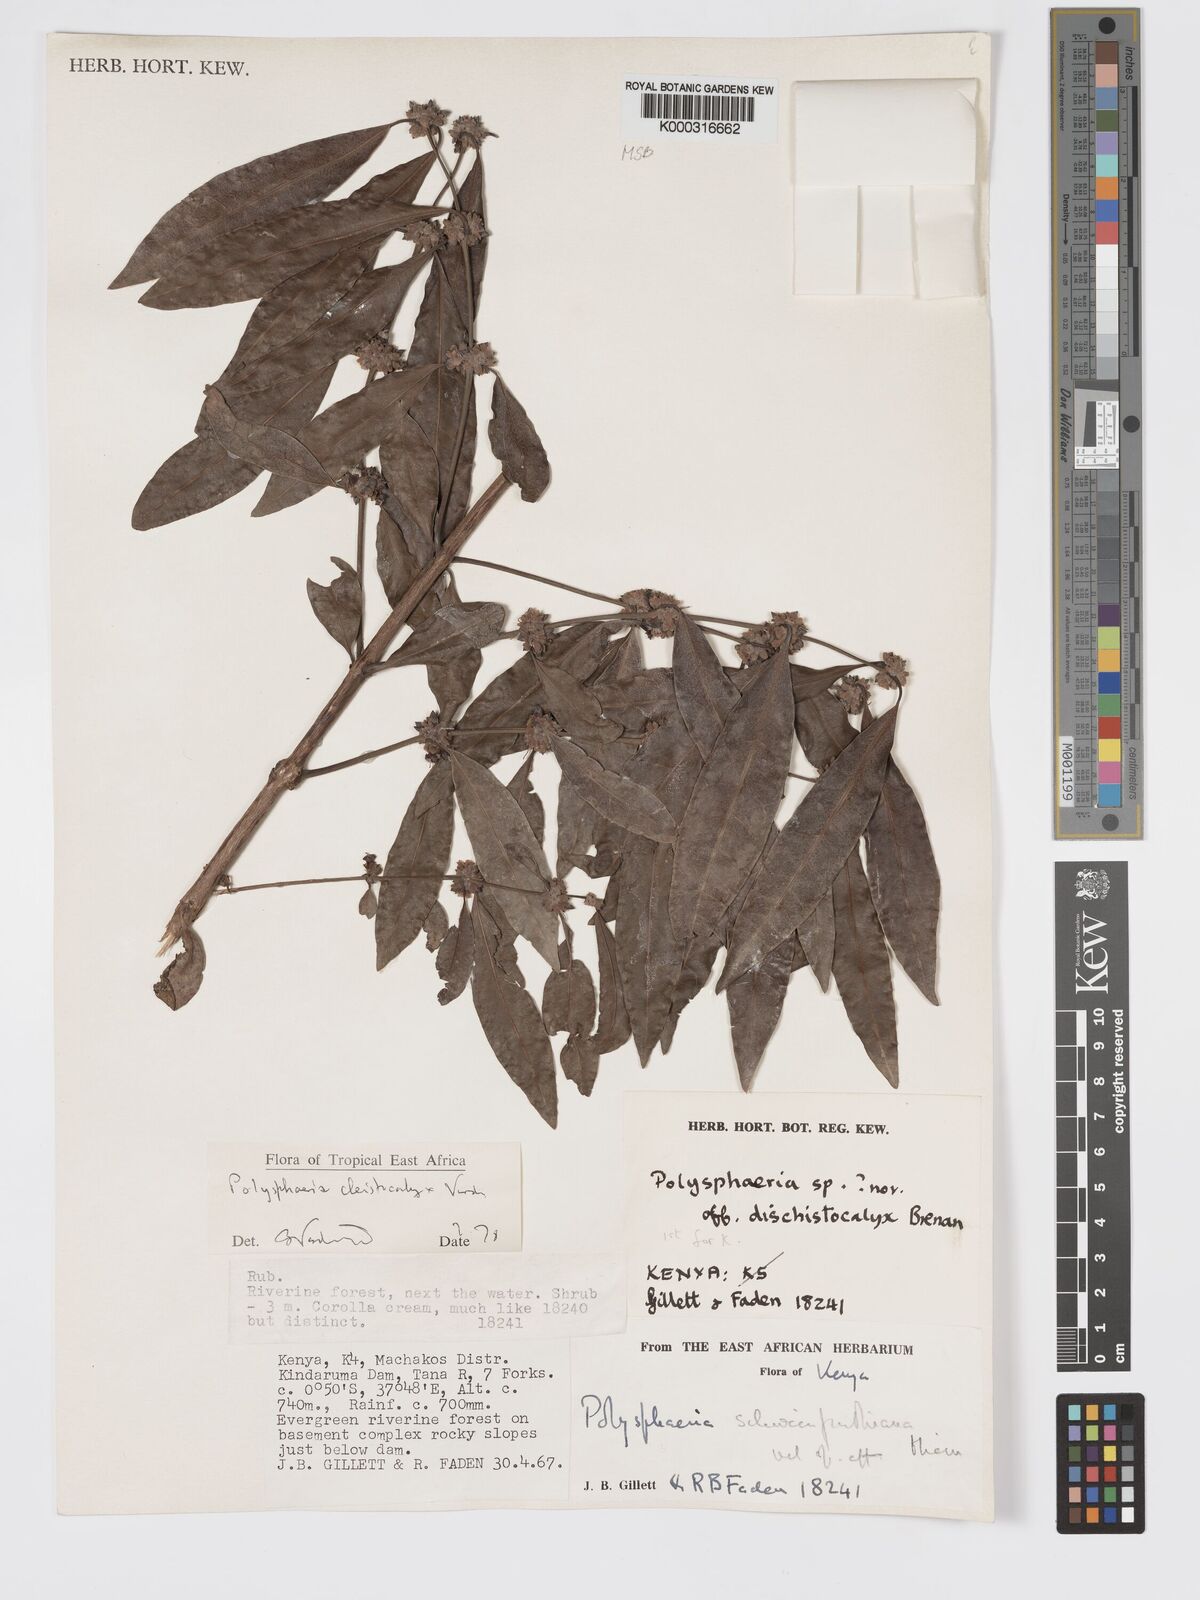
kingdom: Plantae
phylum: Tracheophyta
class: Magnoliopsida
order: Gentianales
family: Rubiaceae
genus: Polysphaeria
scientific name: Polysphaeria cleistocalyx
